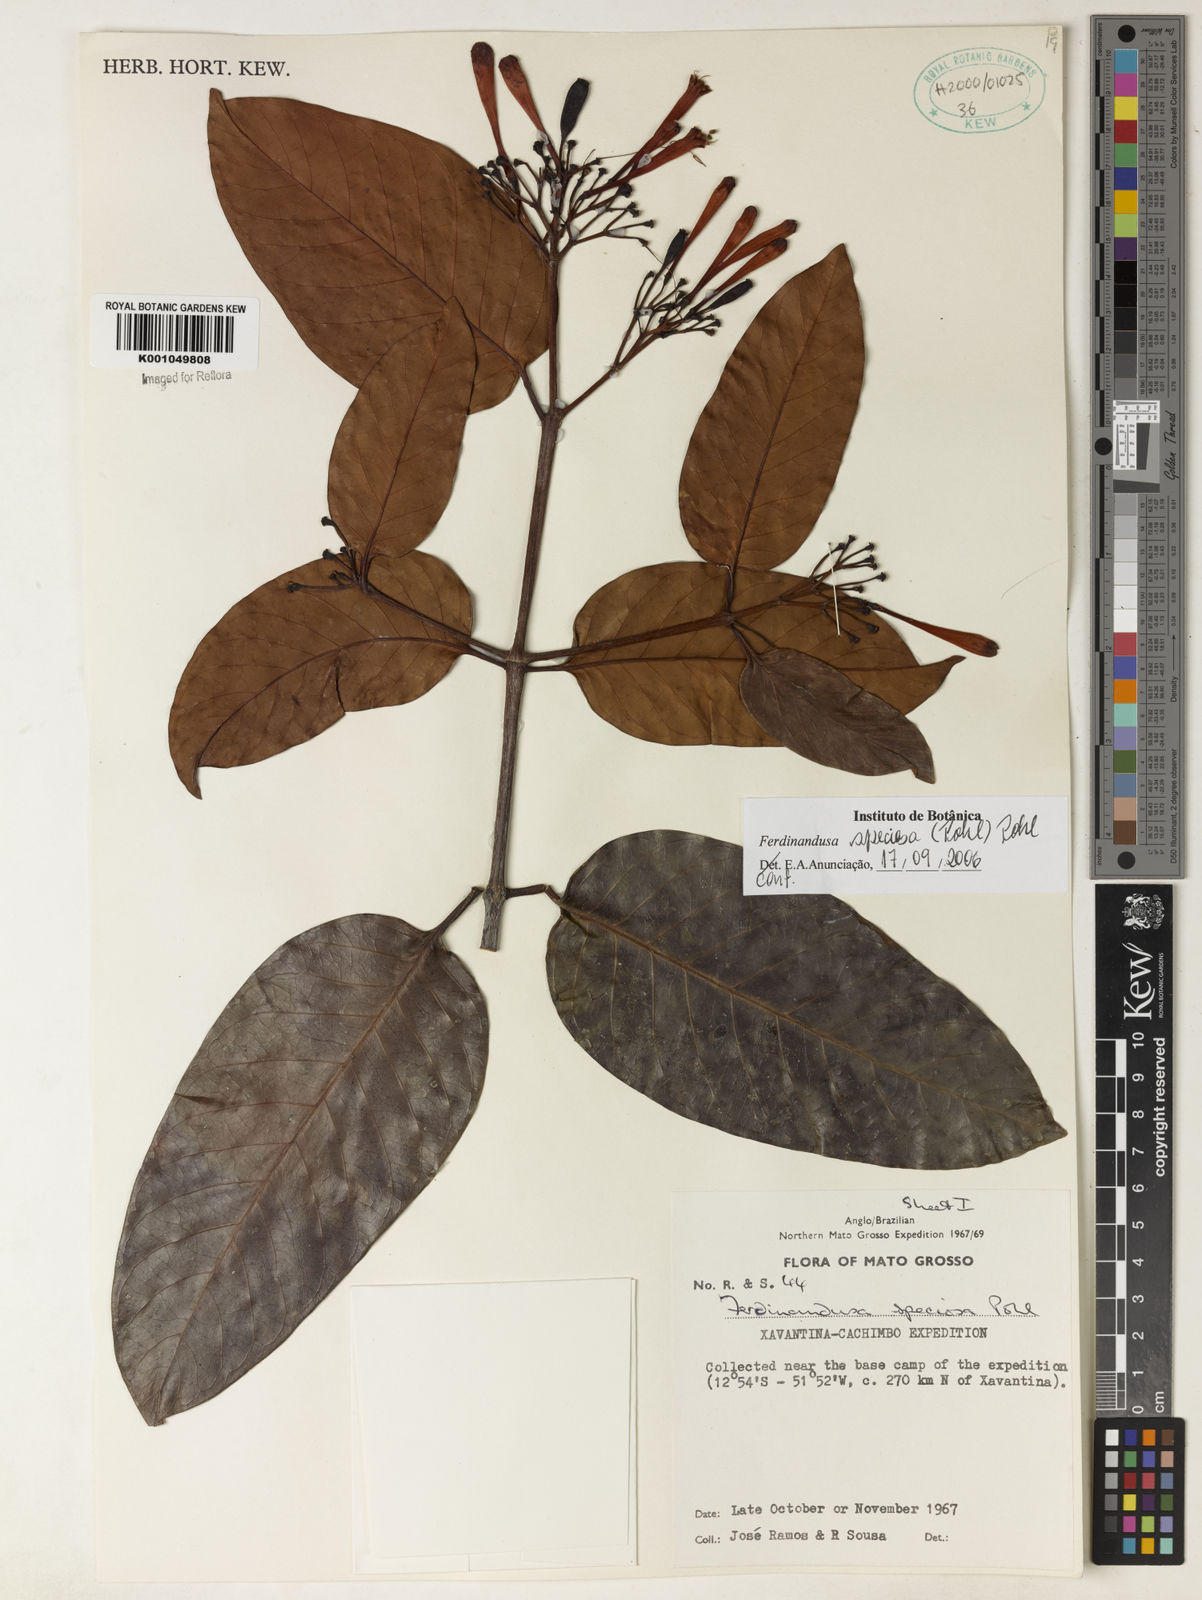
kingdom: Plantae
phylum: Tracheophyta
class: Magnoliopsida
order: Gentianales
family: Rubiaceae
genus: Ferdinandusa
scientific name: Ferdinandusa speciosa
